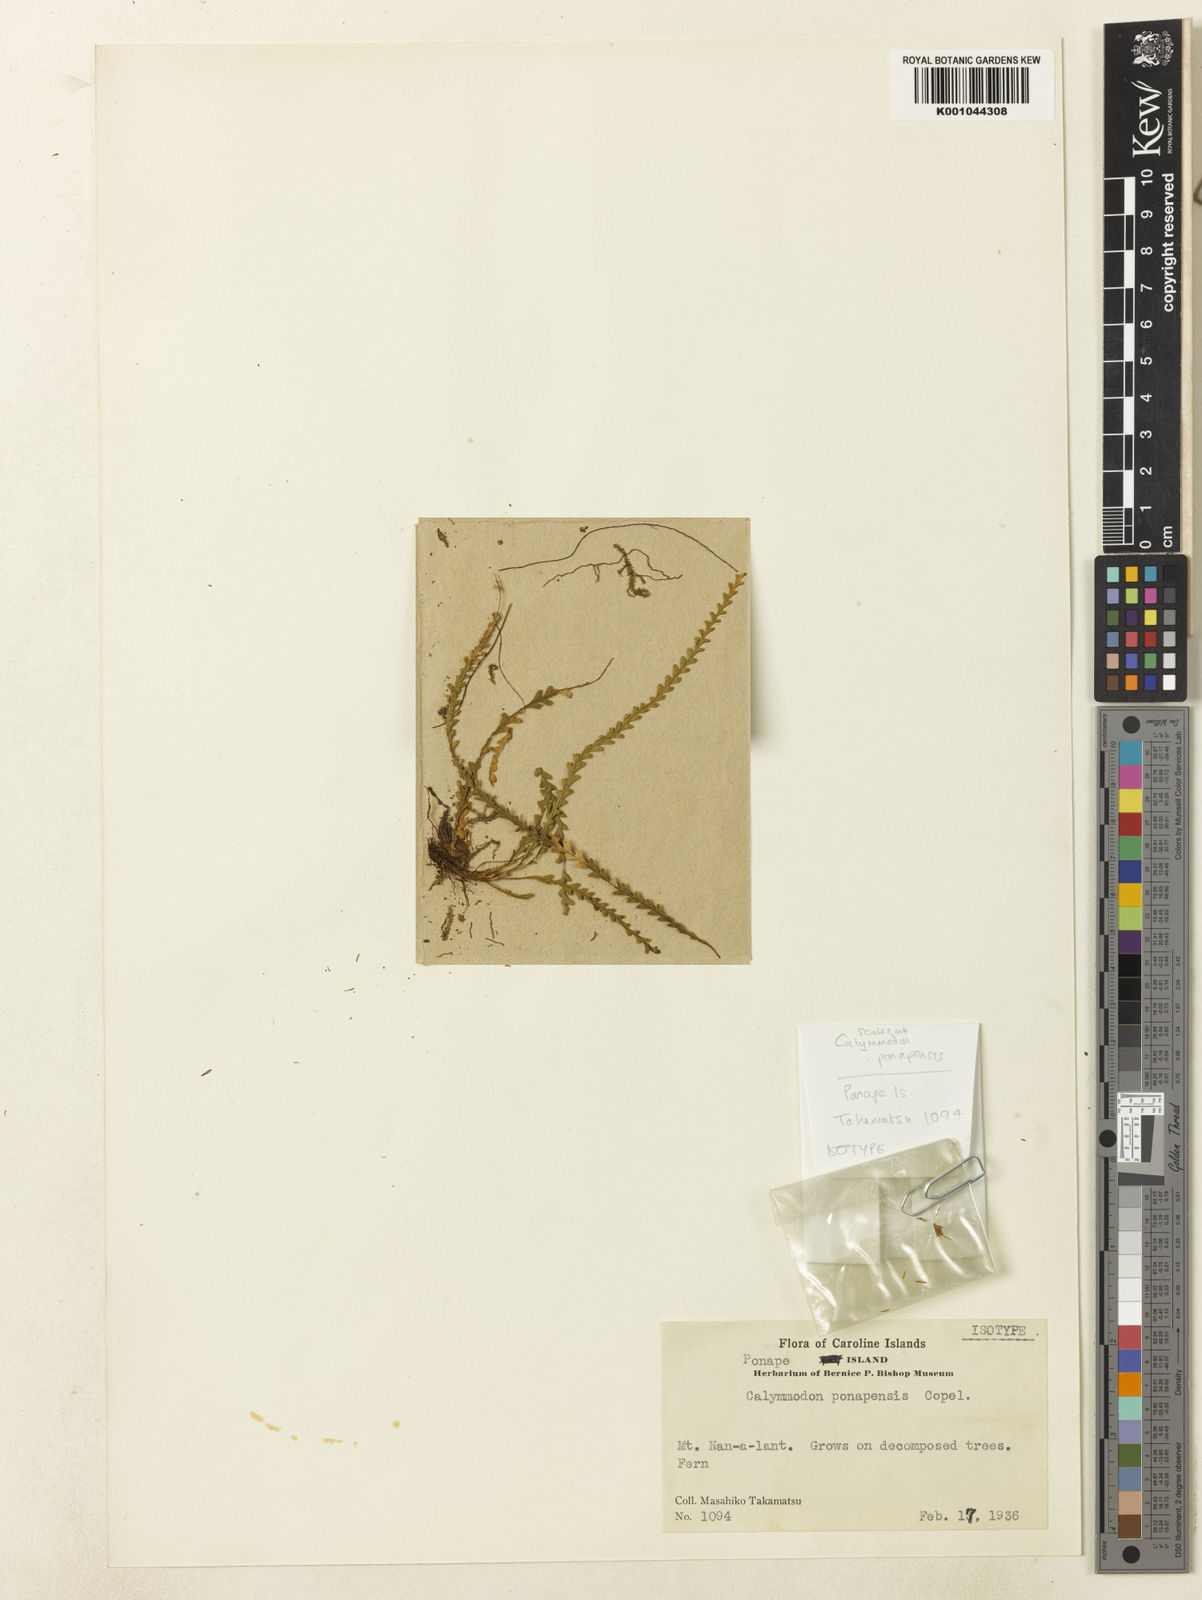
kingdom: Plantae
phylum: Tracheophyta
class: Polypodiopsida
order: Polypodiales
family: Polypodiaceae
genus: Calymmodon
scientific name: Calymmodon ponapensis
